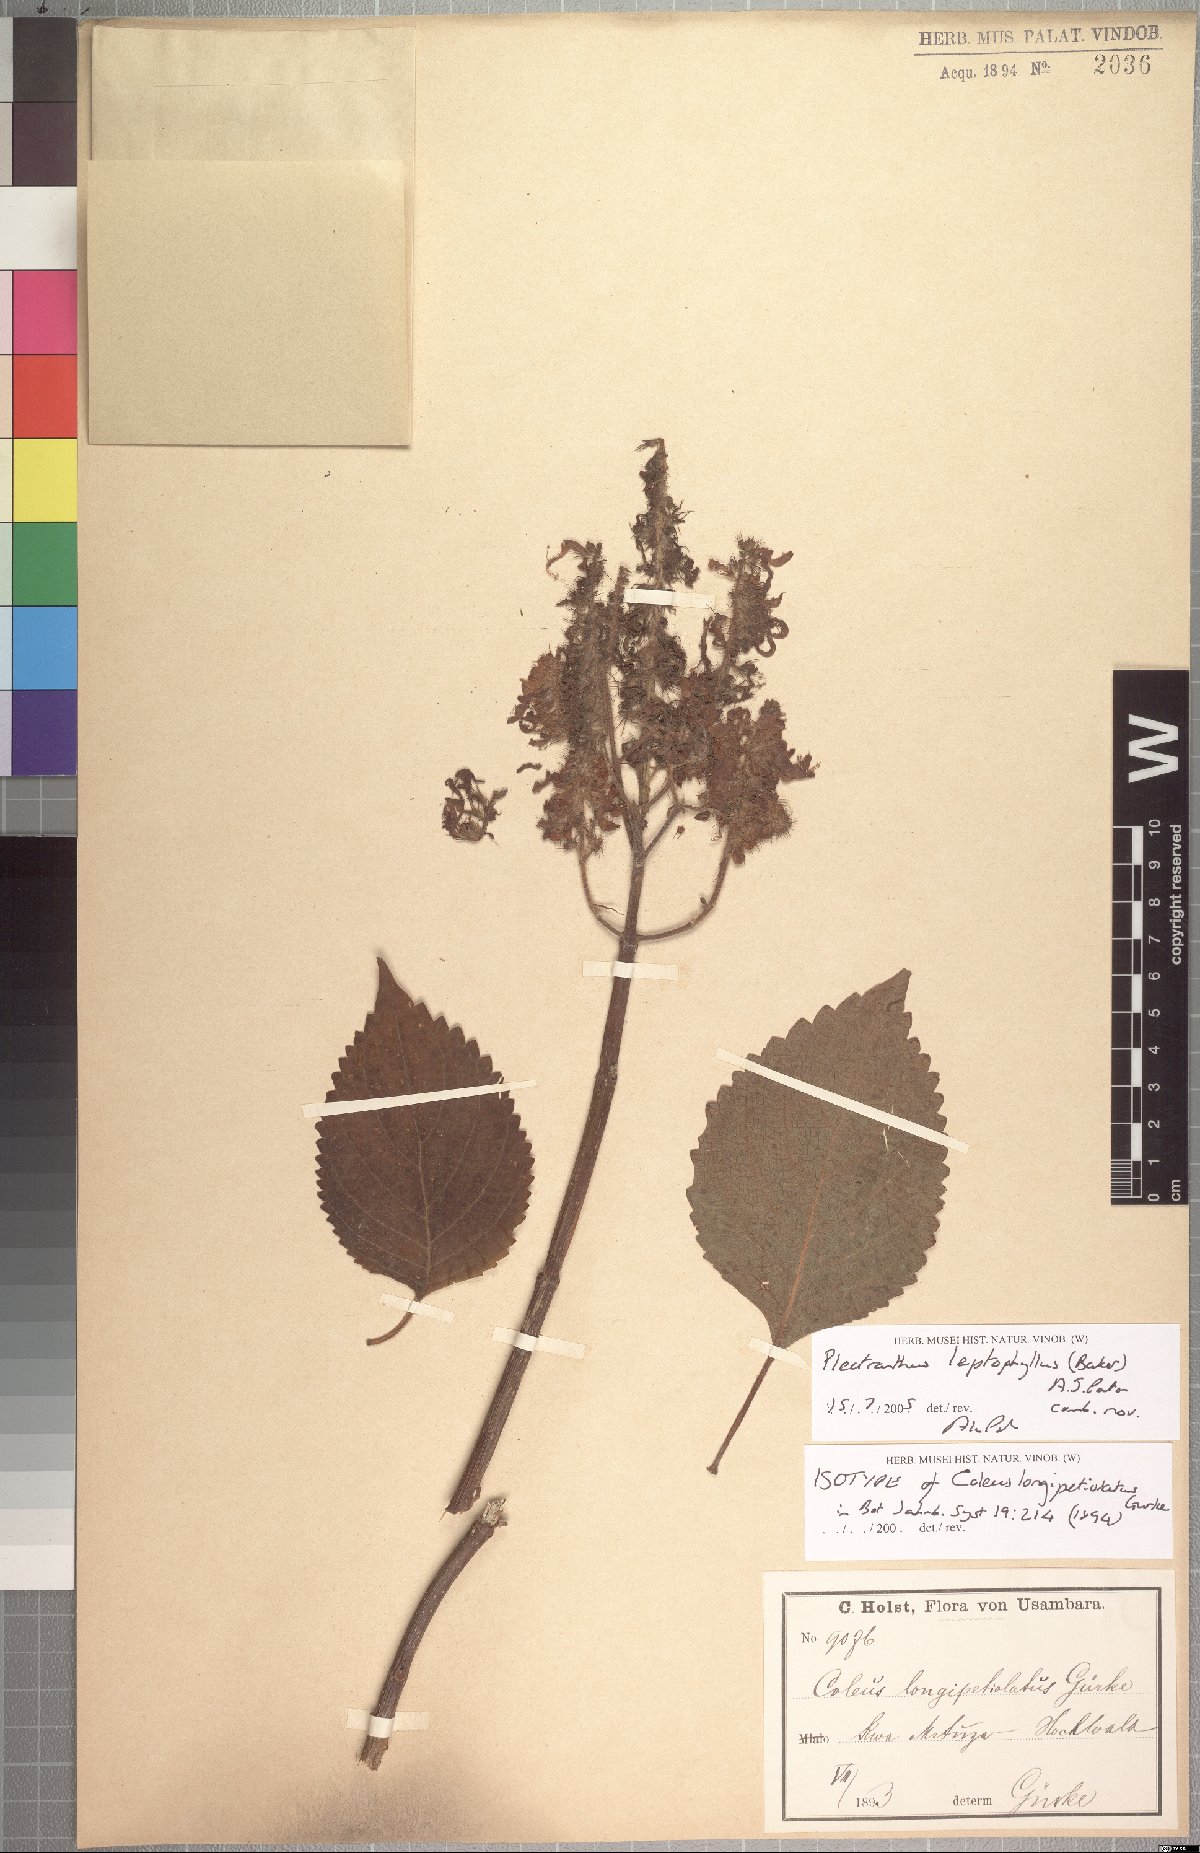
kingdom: Plantae
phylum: Tracheophyta
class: Magnoliopsida
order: Lamiales
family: Lamiaceae
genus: Coleus
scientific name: Coleus longipetiolatus
